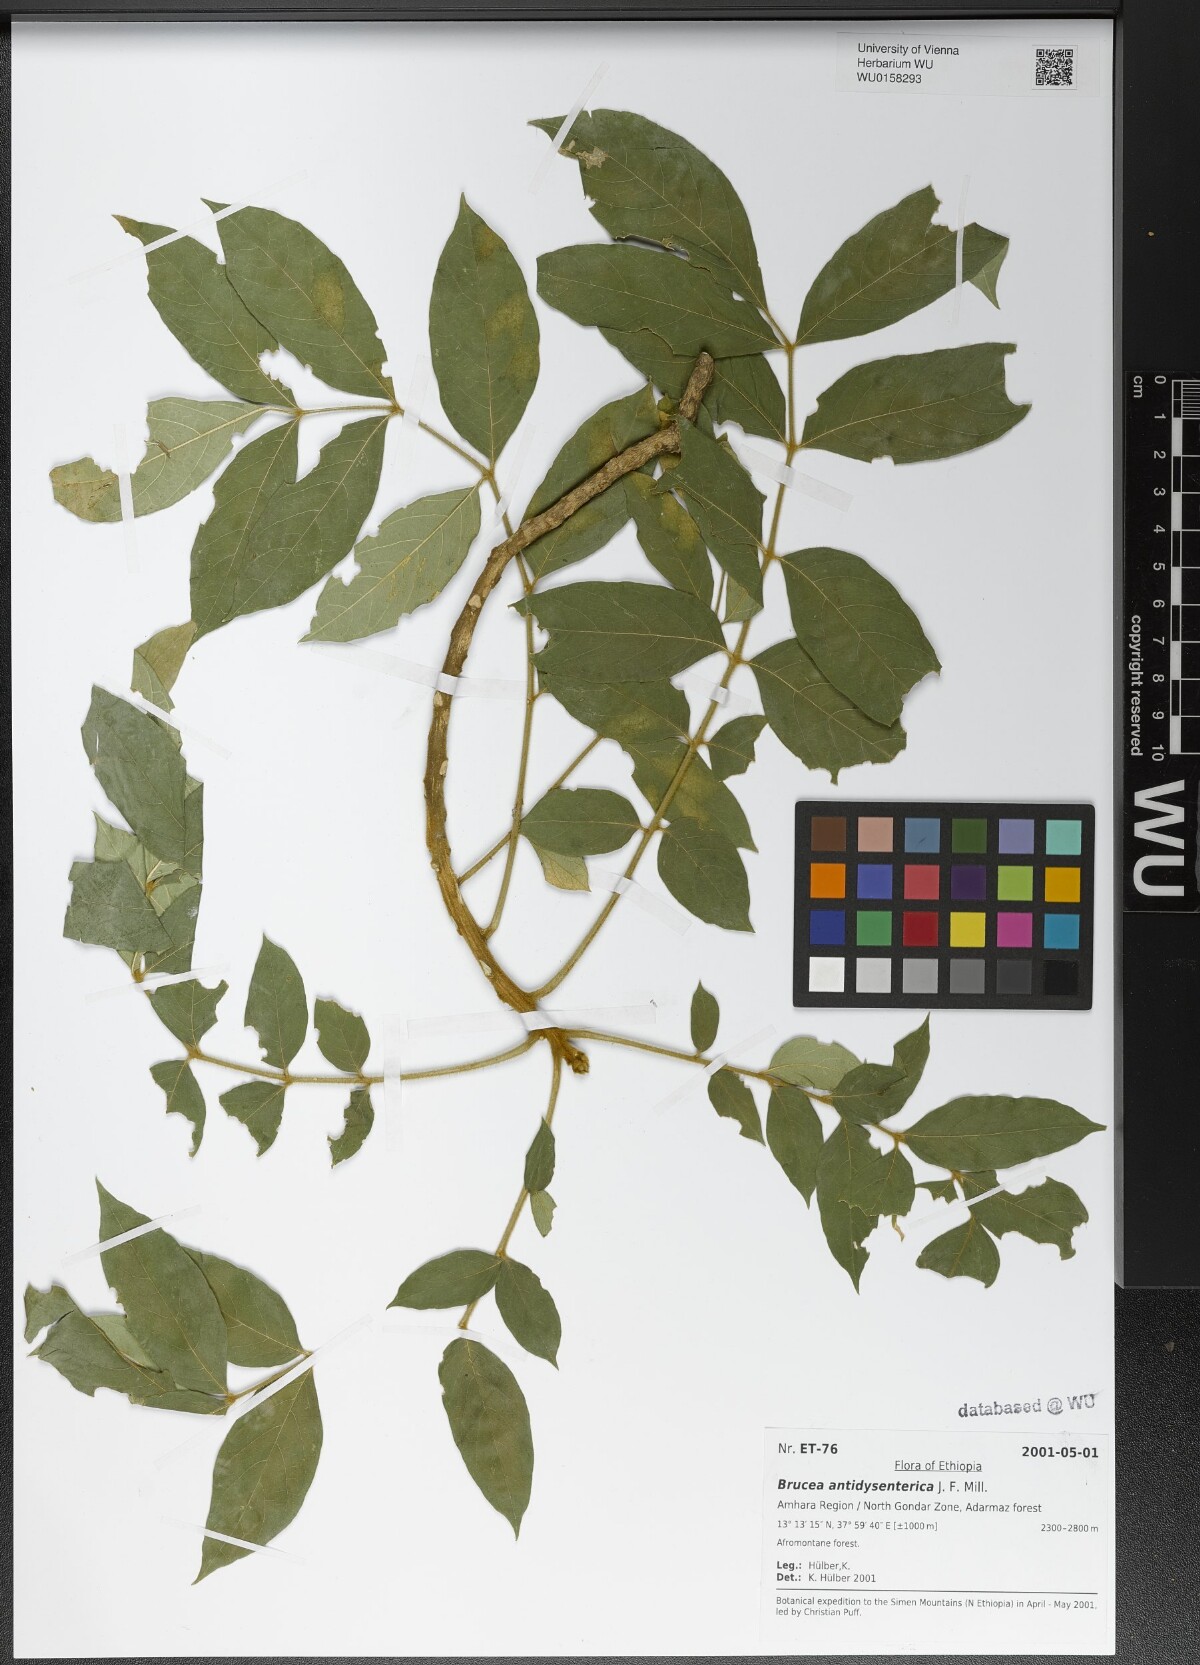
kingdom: Plantae
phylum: Tracheophyta
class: Magnoliopsida
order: Sapindales
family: Simaroubaceae
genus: Brucea
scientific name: Brucea antidysenterica
